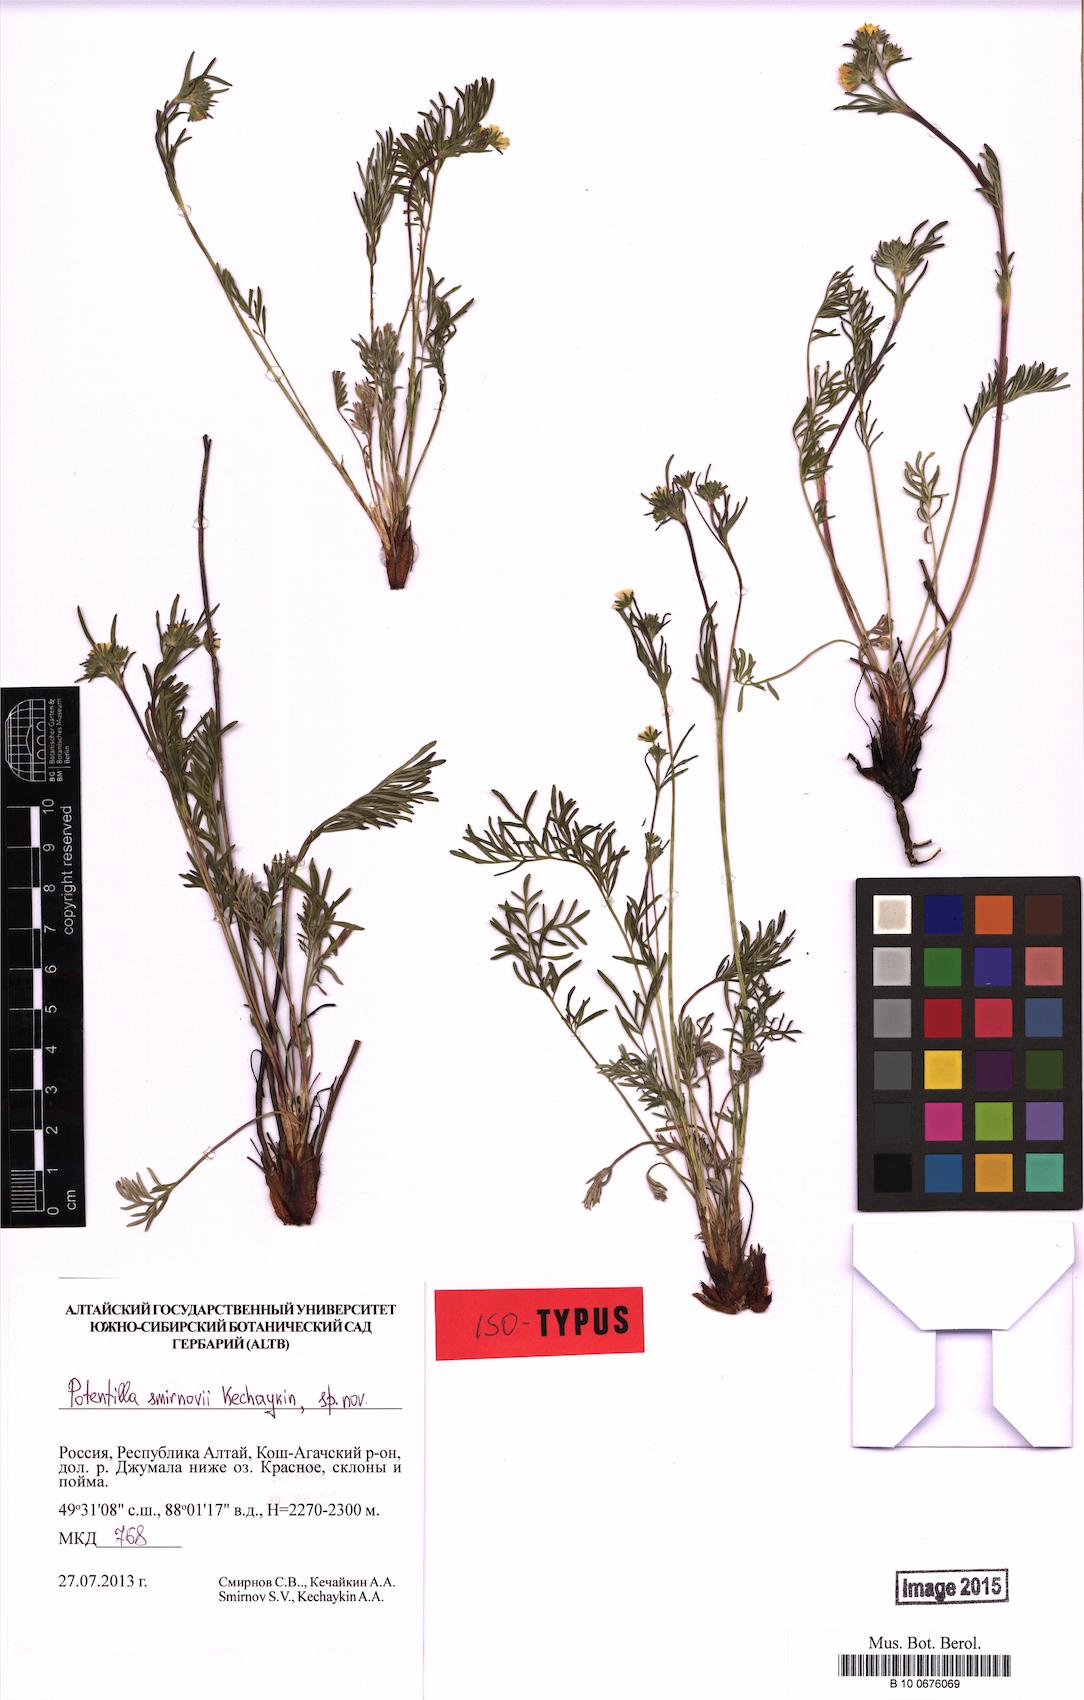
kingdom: Plantae
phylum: Tracheophyta
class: Magnoliopsida
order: Rosales
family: Rosaceae
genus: Potentilla
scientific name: Potentilla smirnovii
